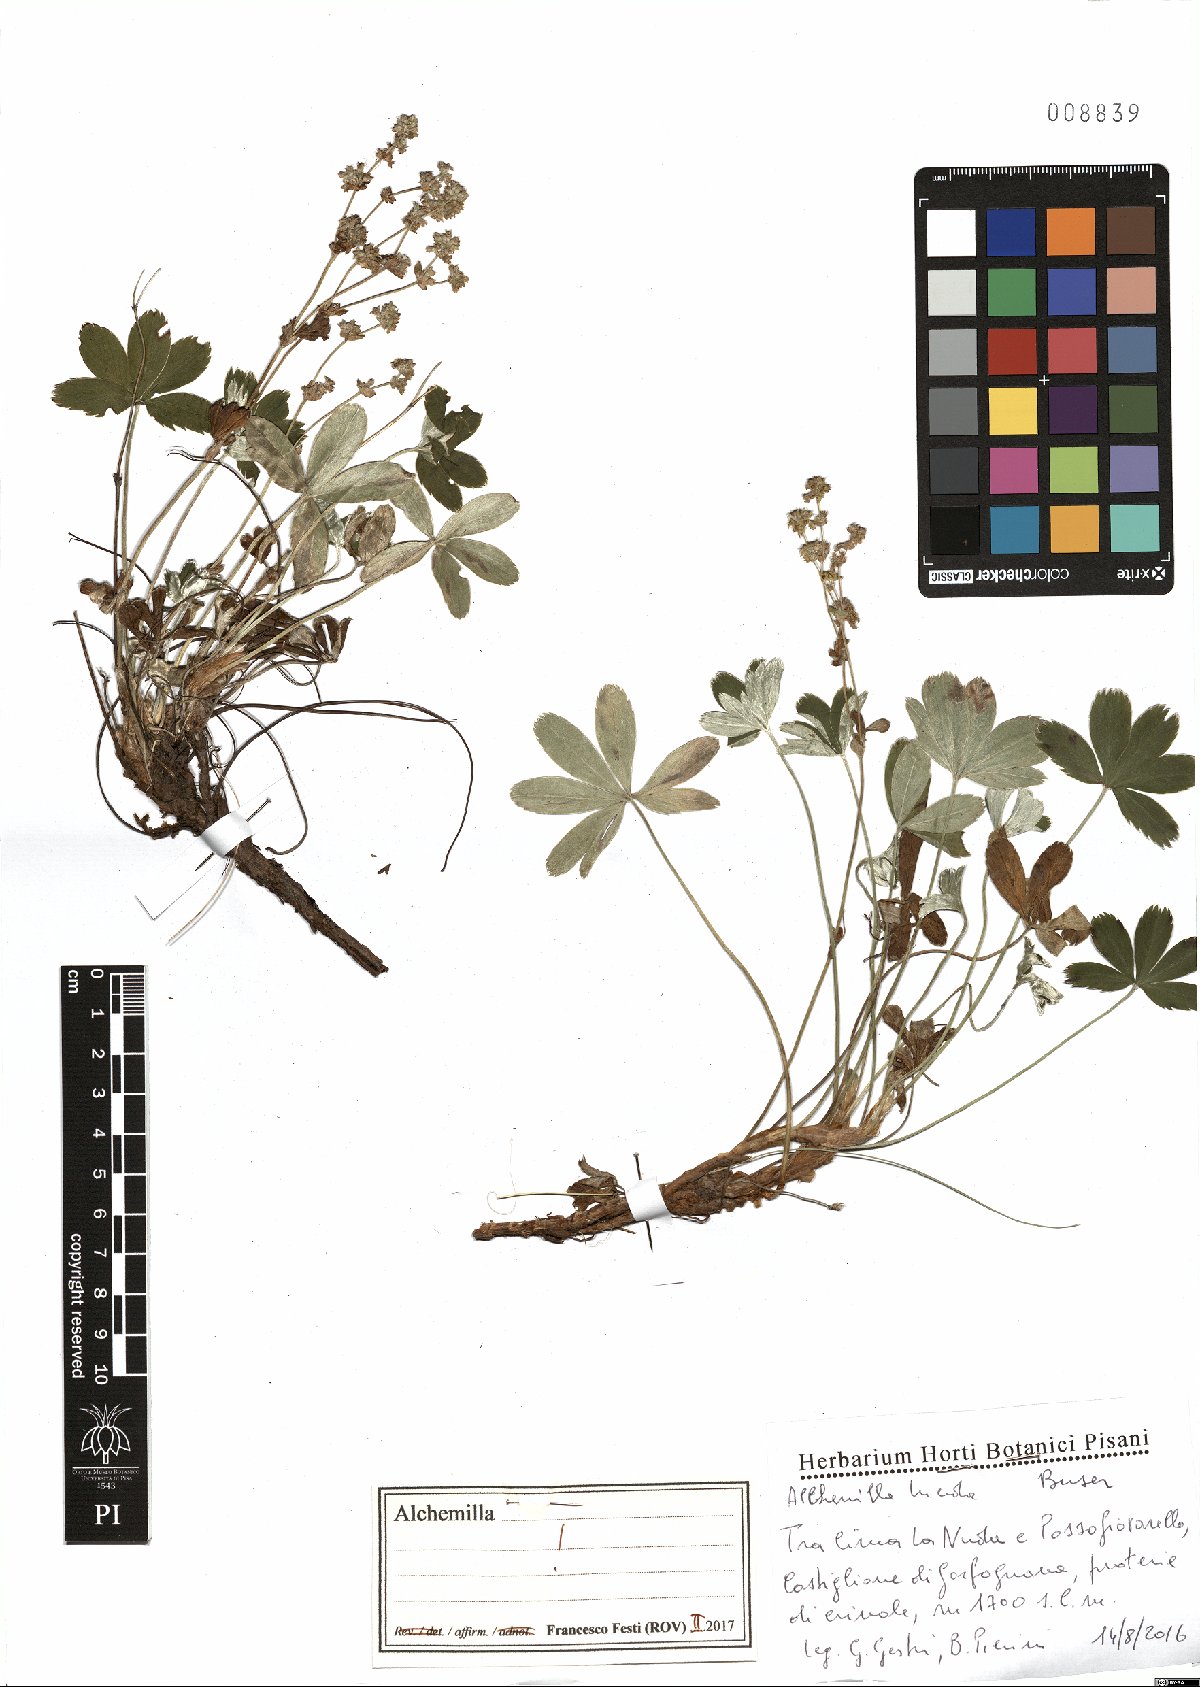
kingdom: Plantae
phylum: Tracheophyta
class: Magnoliopsida
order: Rosales
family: Rosaceae
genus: Alchemilla
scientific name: Alchemilla lucida
